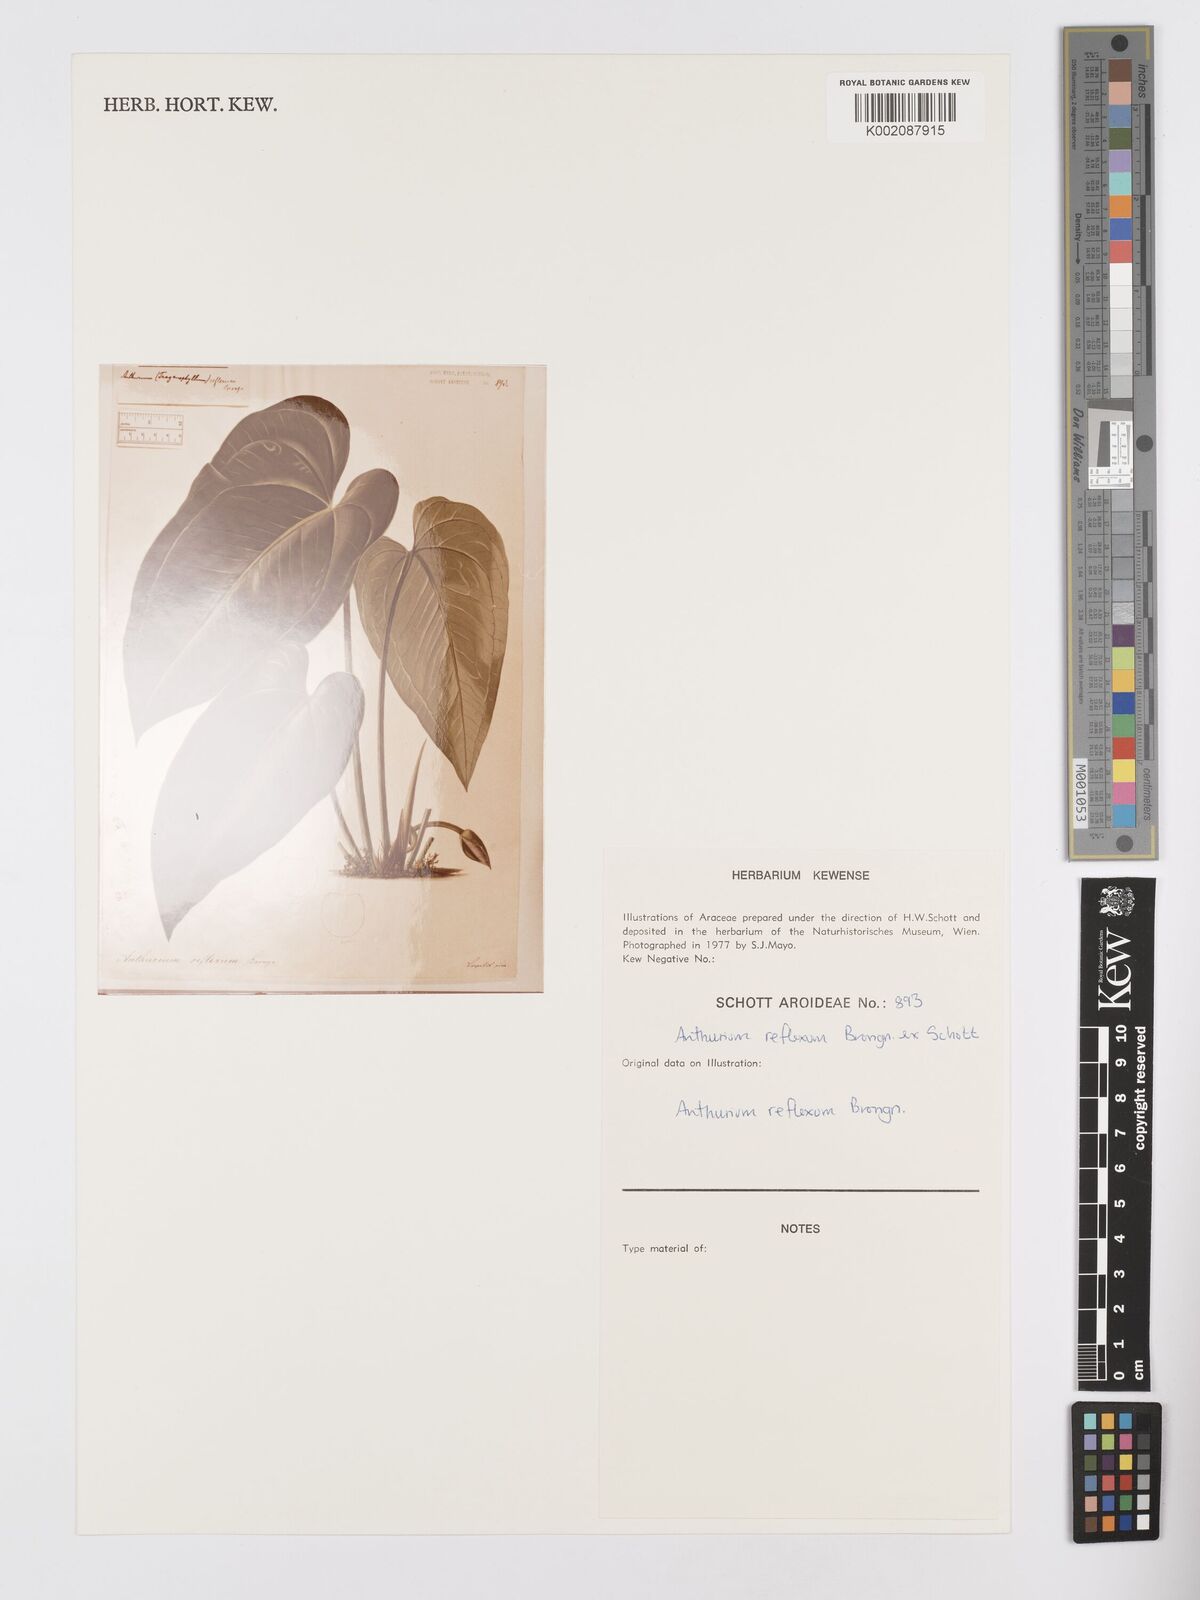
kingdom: Plantae
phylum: Tracheophyta
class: Liliopsida
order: Alismatales
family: Araceae
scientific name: Araceae
